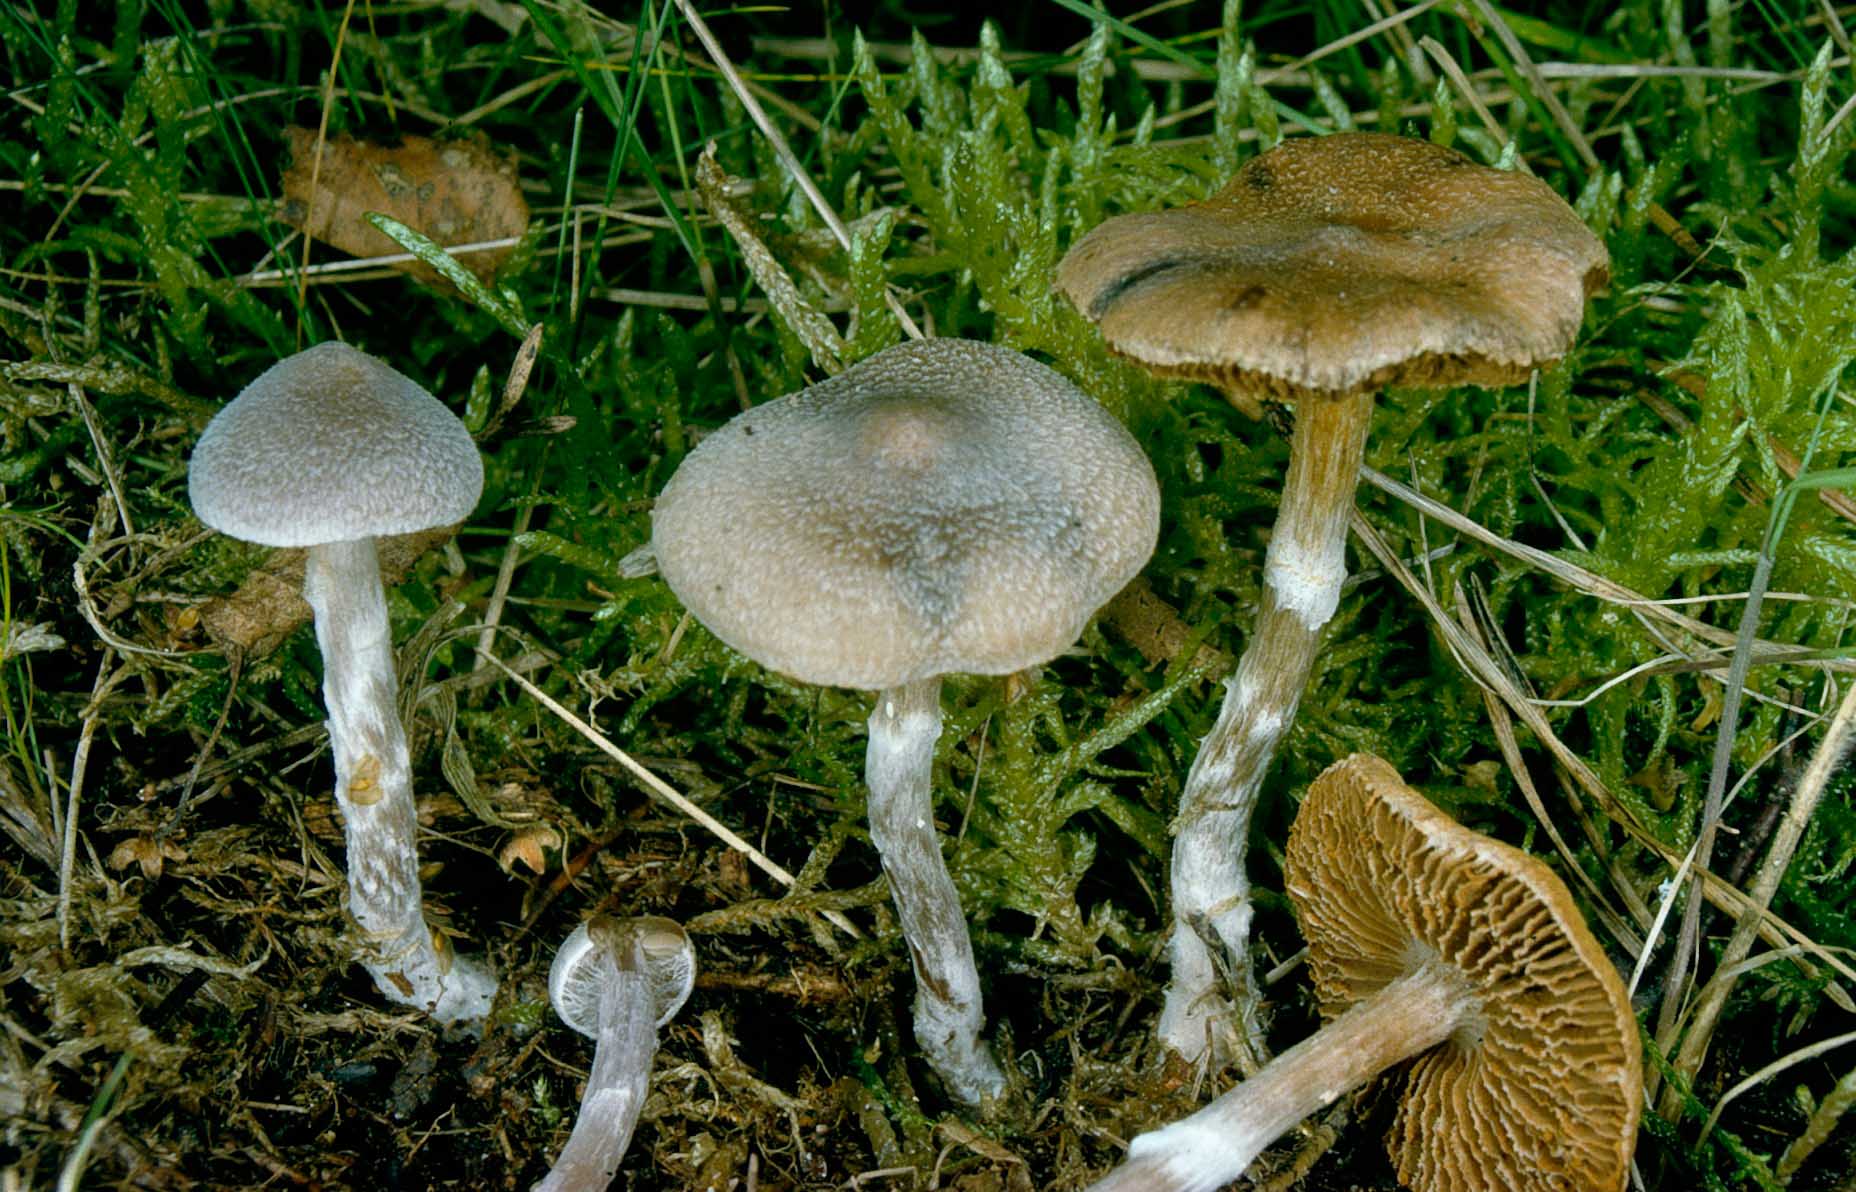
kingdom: Fungi
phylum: Basidiomycota
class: Agaricomycetes
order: Agaricales
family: Cortinariaceae
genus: Cortinarius
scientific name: Cortinarius hemitrichus
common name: hvidfnugget slørhat
